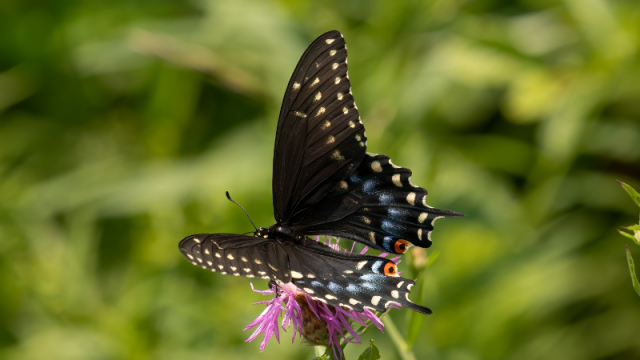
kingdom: Animalia
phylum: Arthropoda
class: Insecta
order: Lepidoptera
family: Papilionidae
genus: Papilio
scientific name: Papilio polyxenes
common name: Black Swallowtail
